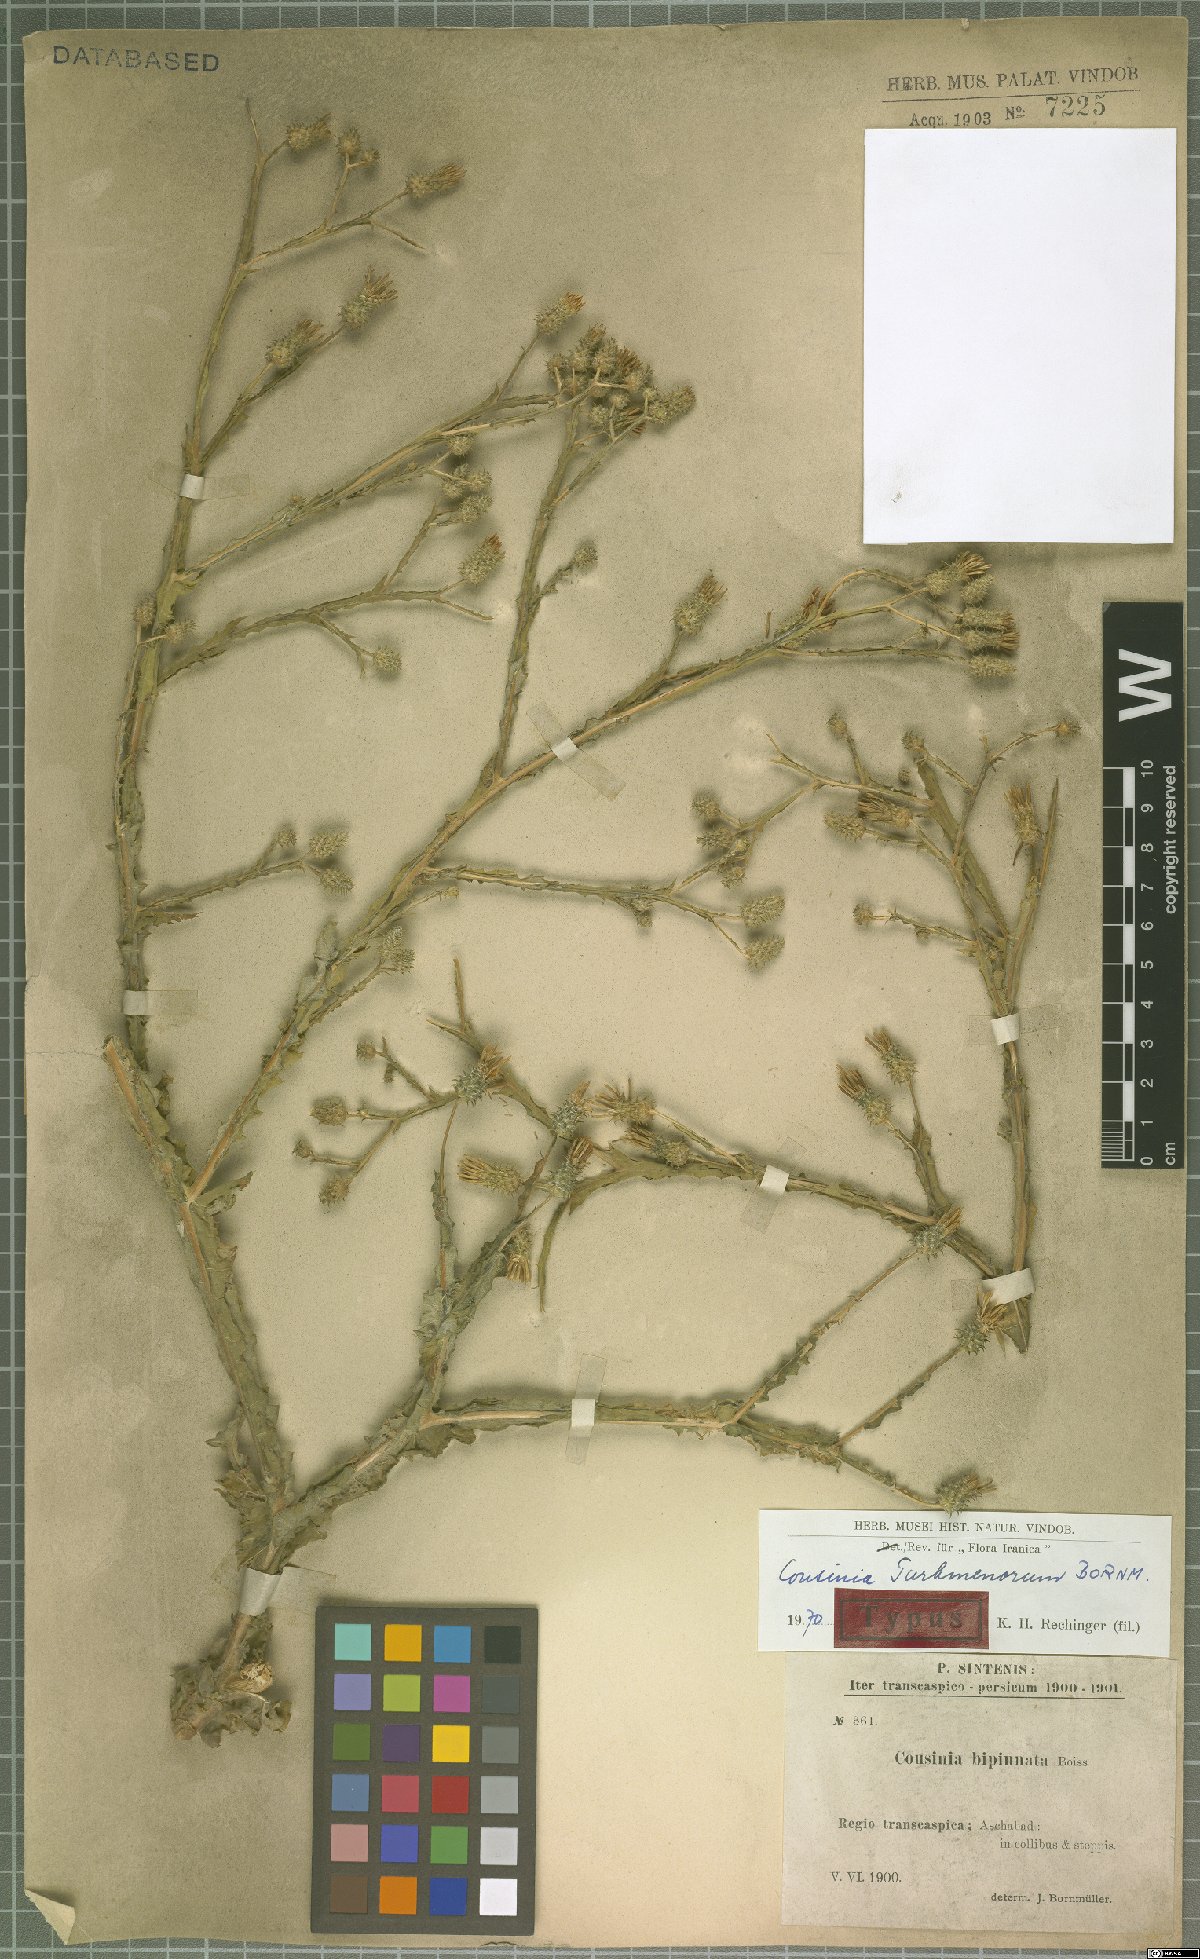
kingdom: Plantae
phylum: Tracheophyta
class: Magnoliopsida
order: Asterales
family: Asteraceae
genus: Cousinia
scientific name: Cousinia turkmenorum
